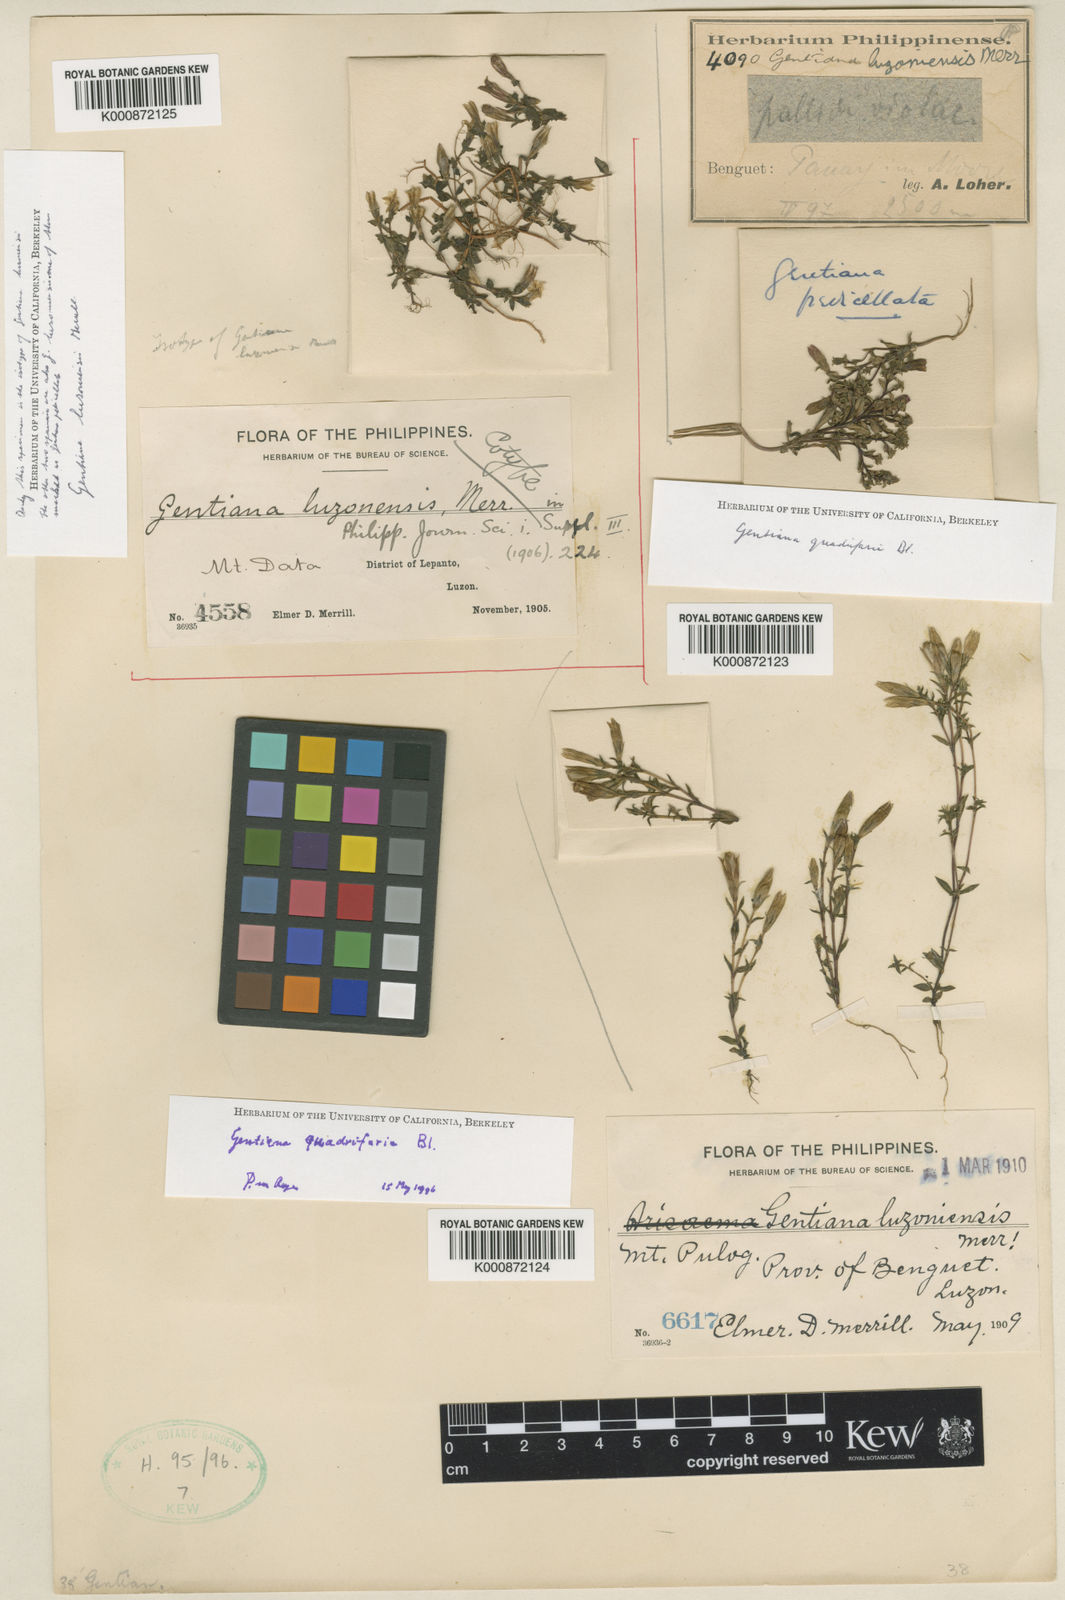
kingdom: Plantae
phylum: Tracheophyta
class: Magnoliopsida
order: Gentianales
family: Gentianaceae
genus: Gentiana
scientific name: Gentiana scabrida
